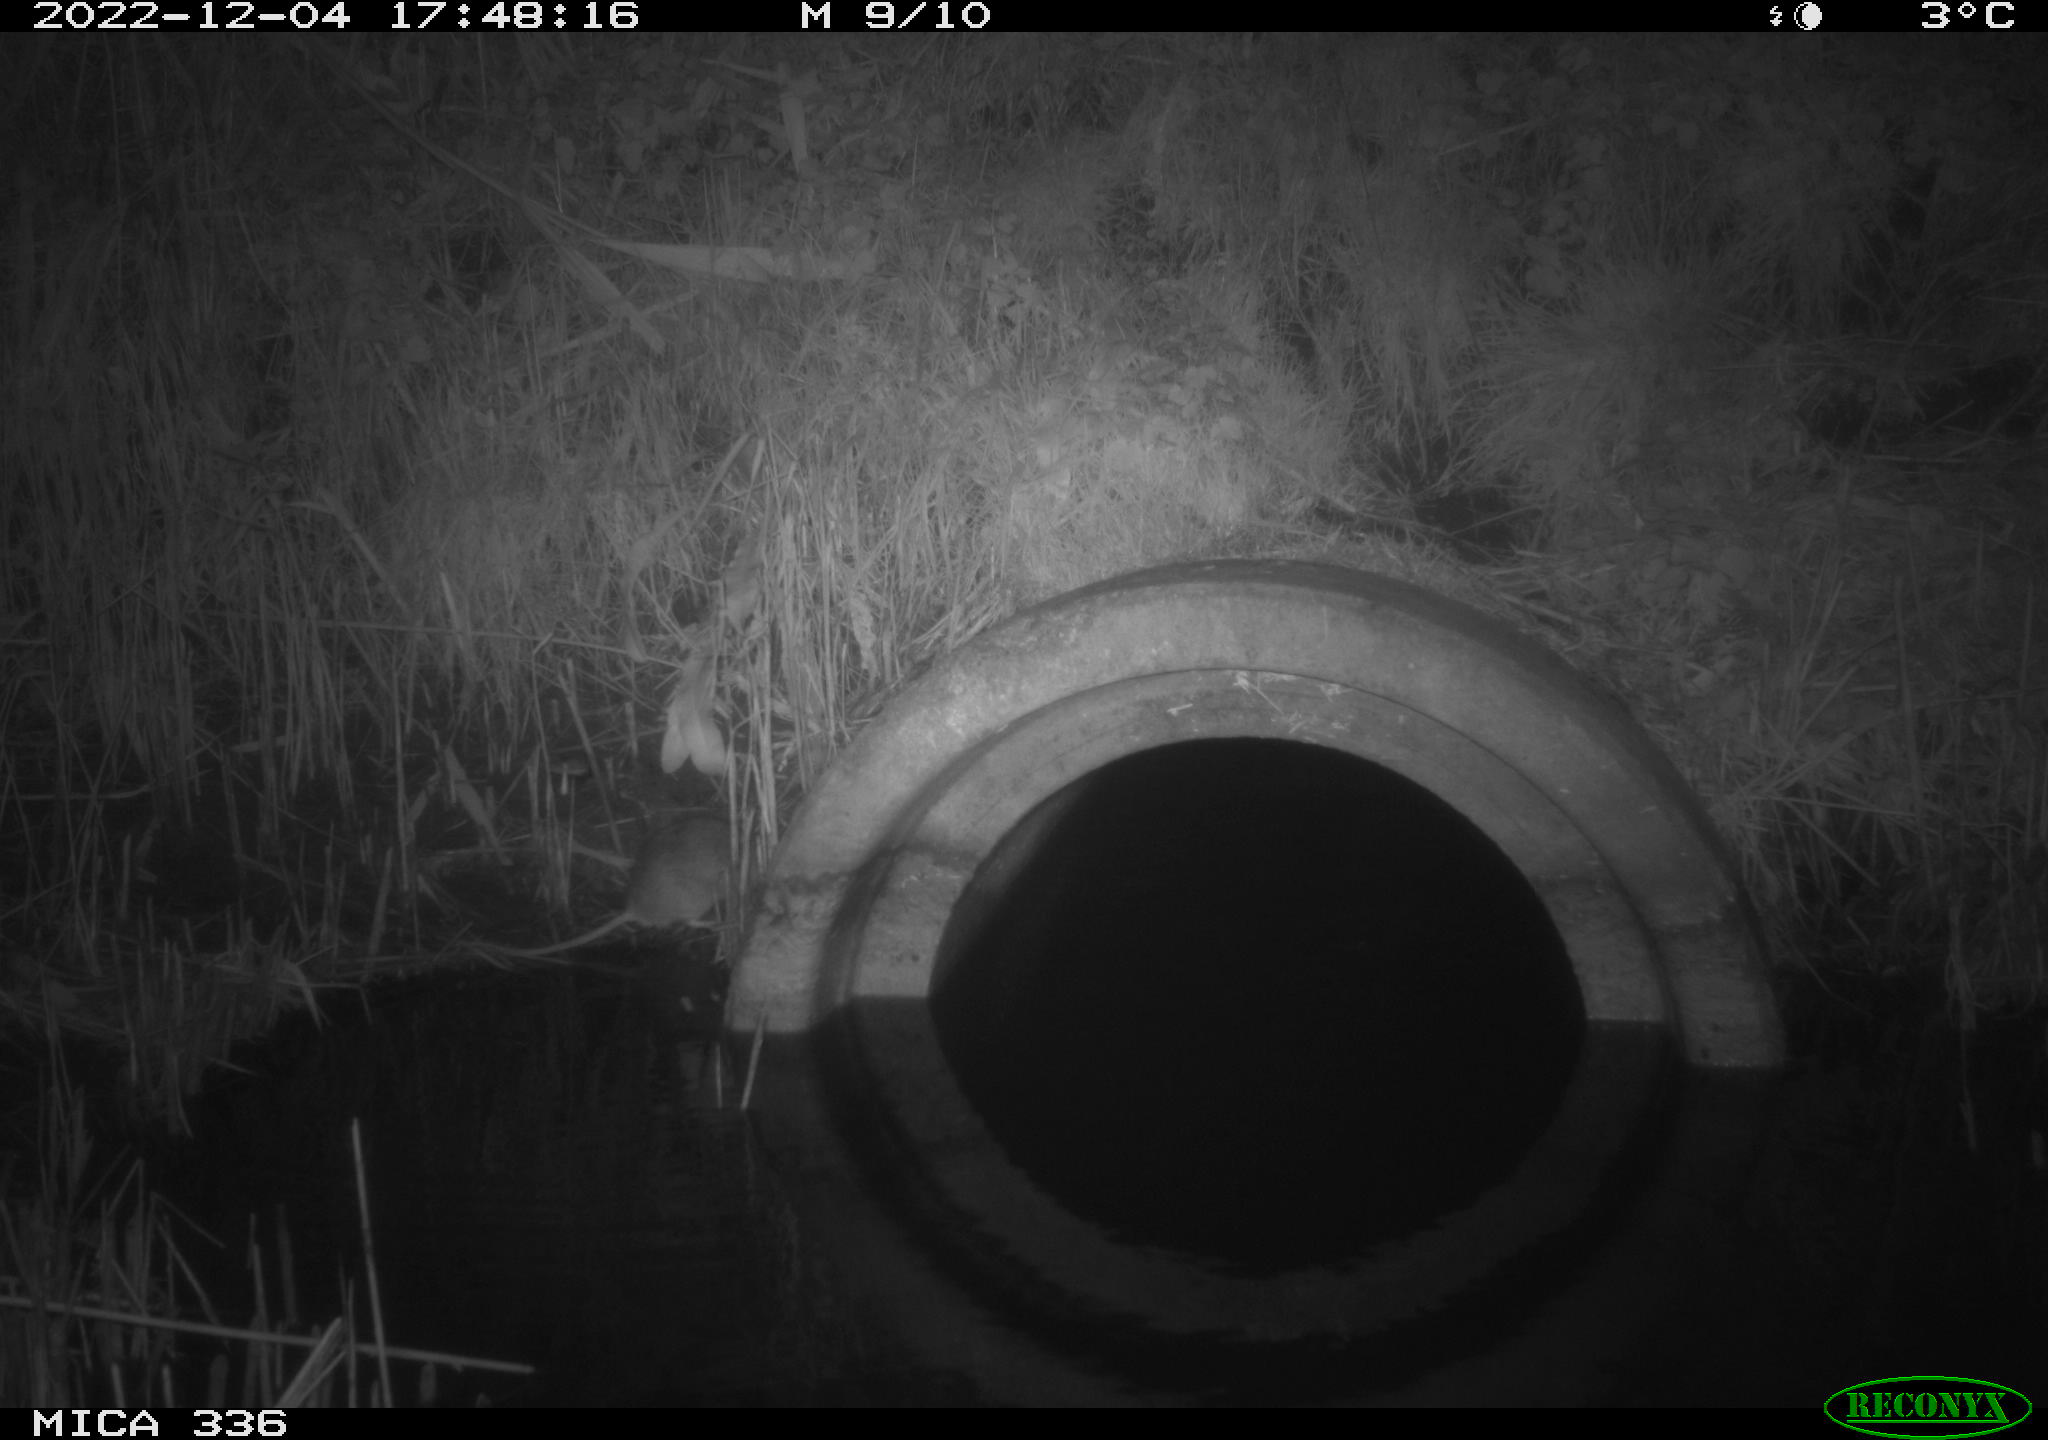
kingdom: Animalia
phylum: Chordata
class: Mammalia
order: Rodentia
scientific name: Rodentia
